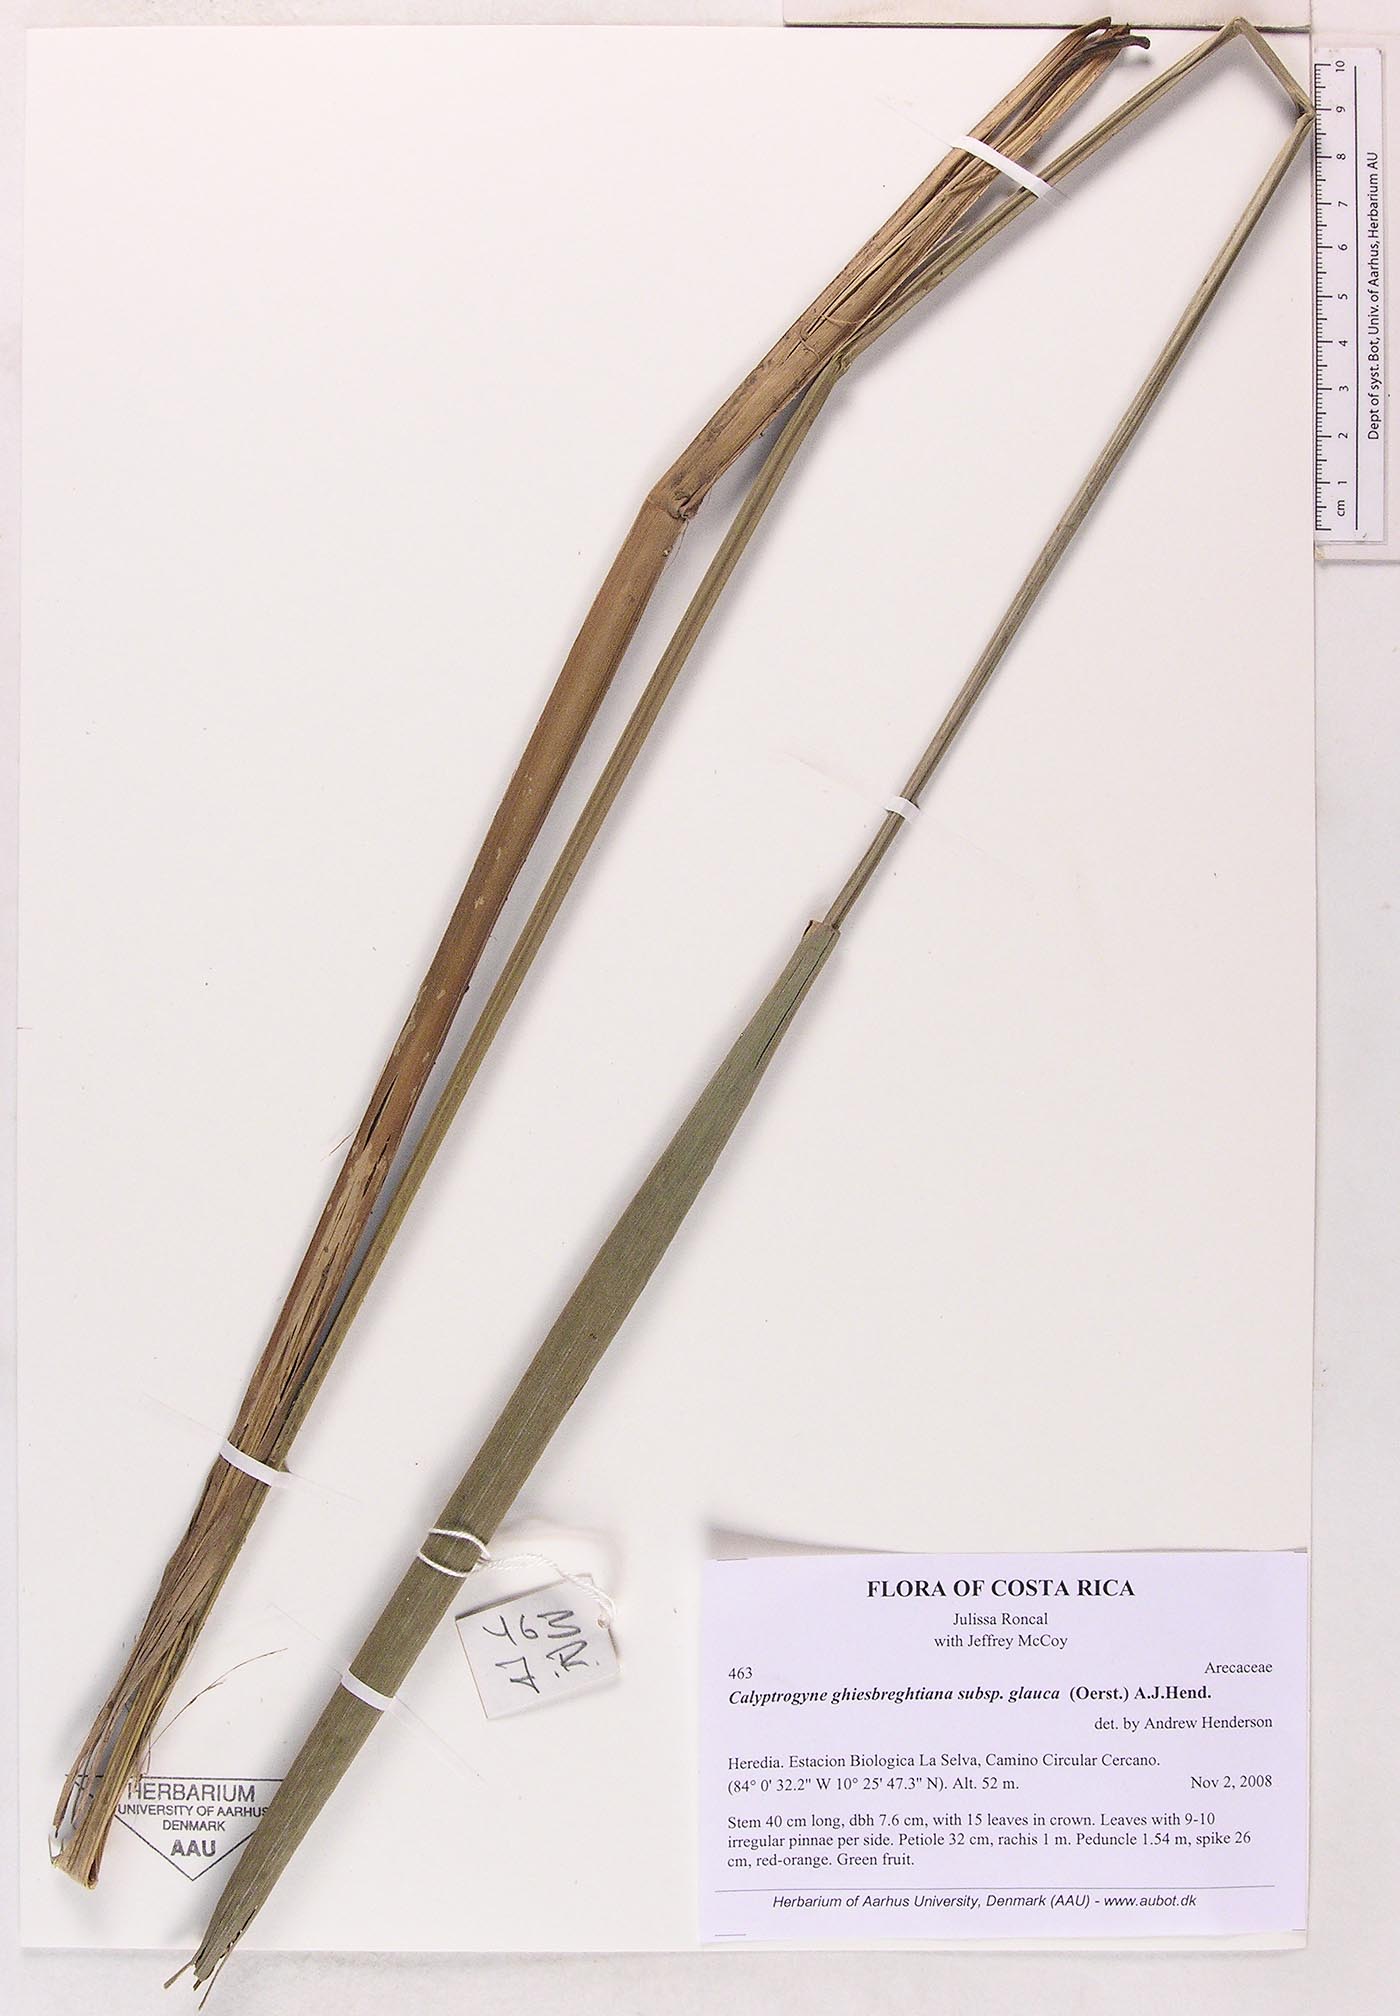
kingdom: Plantae
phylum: Tracheophyta
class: Liliopsida
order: Arecales
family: Arecaceae
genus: Calyptrogyne
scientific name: Calyptrogyne ghiesbreghtiana
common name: Coligallo
